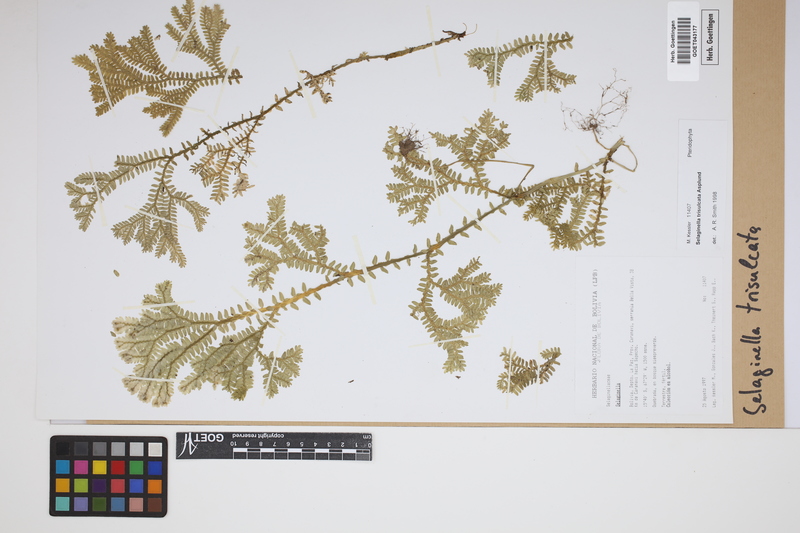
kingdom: Plantae
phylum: Tracheophyta
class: Lycopodiopsida
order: Selaginellales
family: Selaginellaceae
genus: Selaginella
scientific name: Selaginella trisulcata
